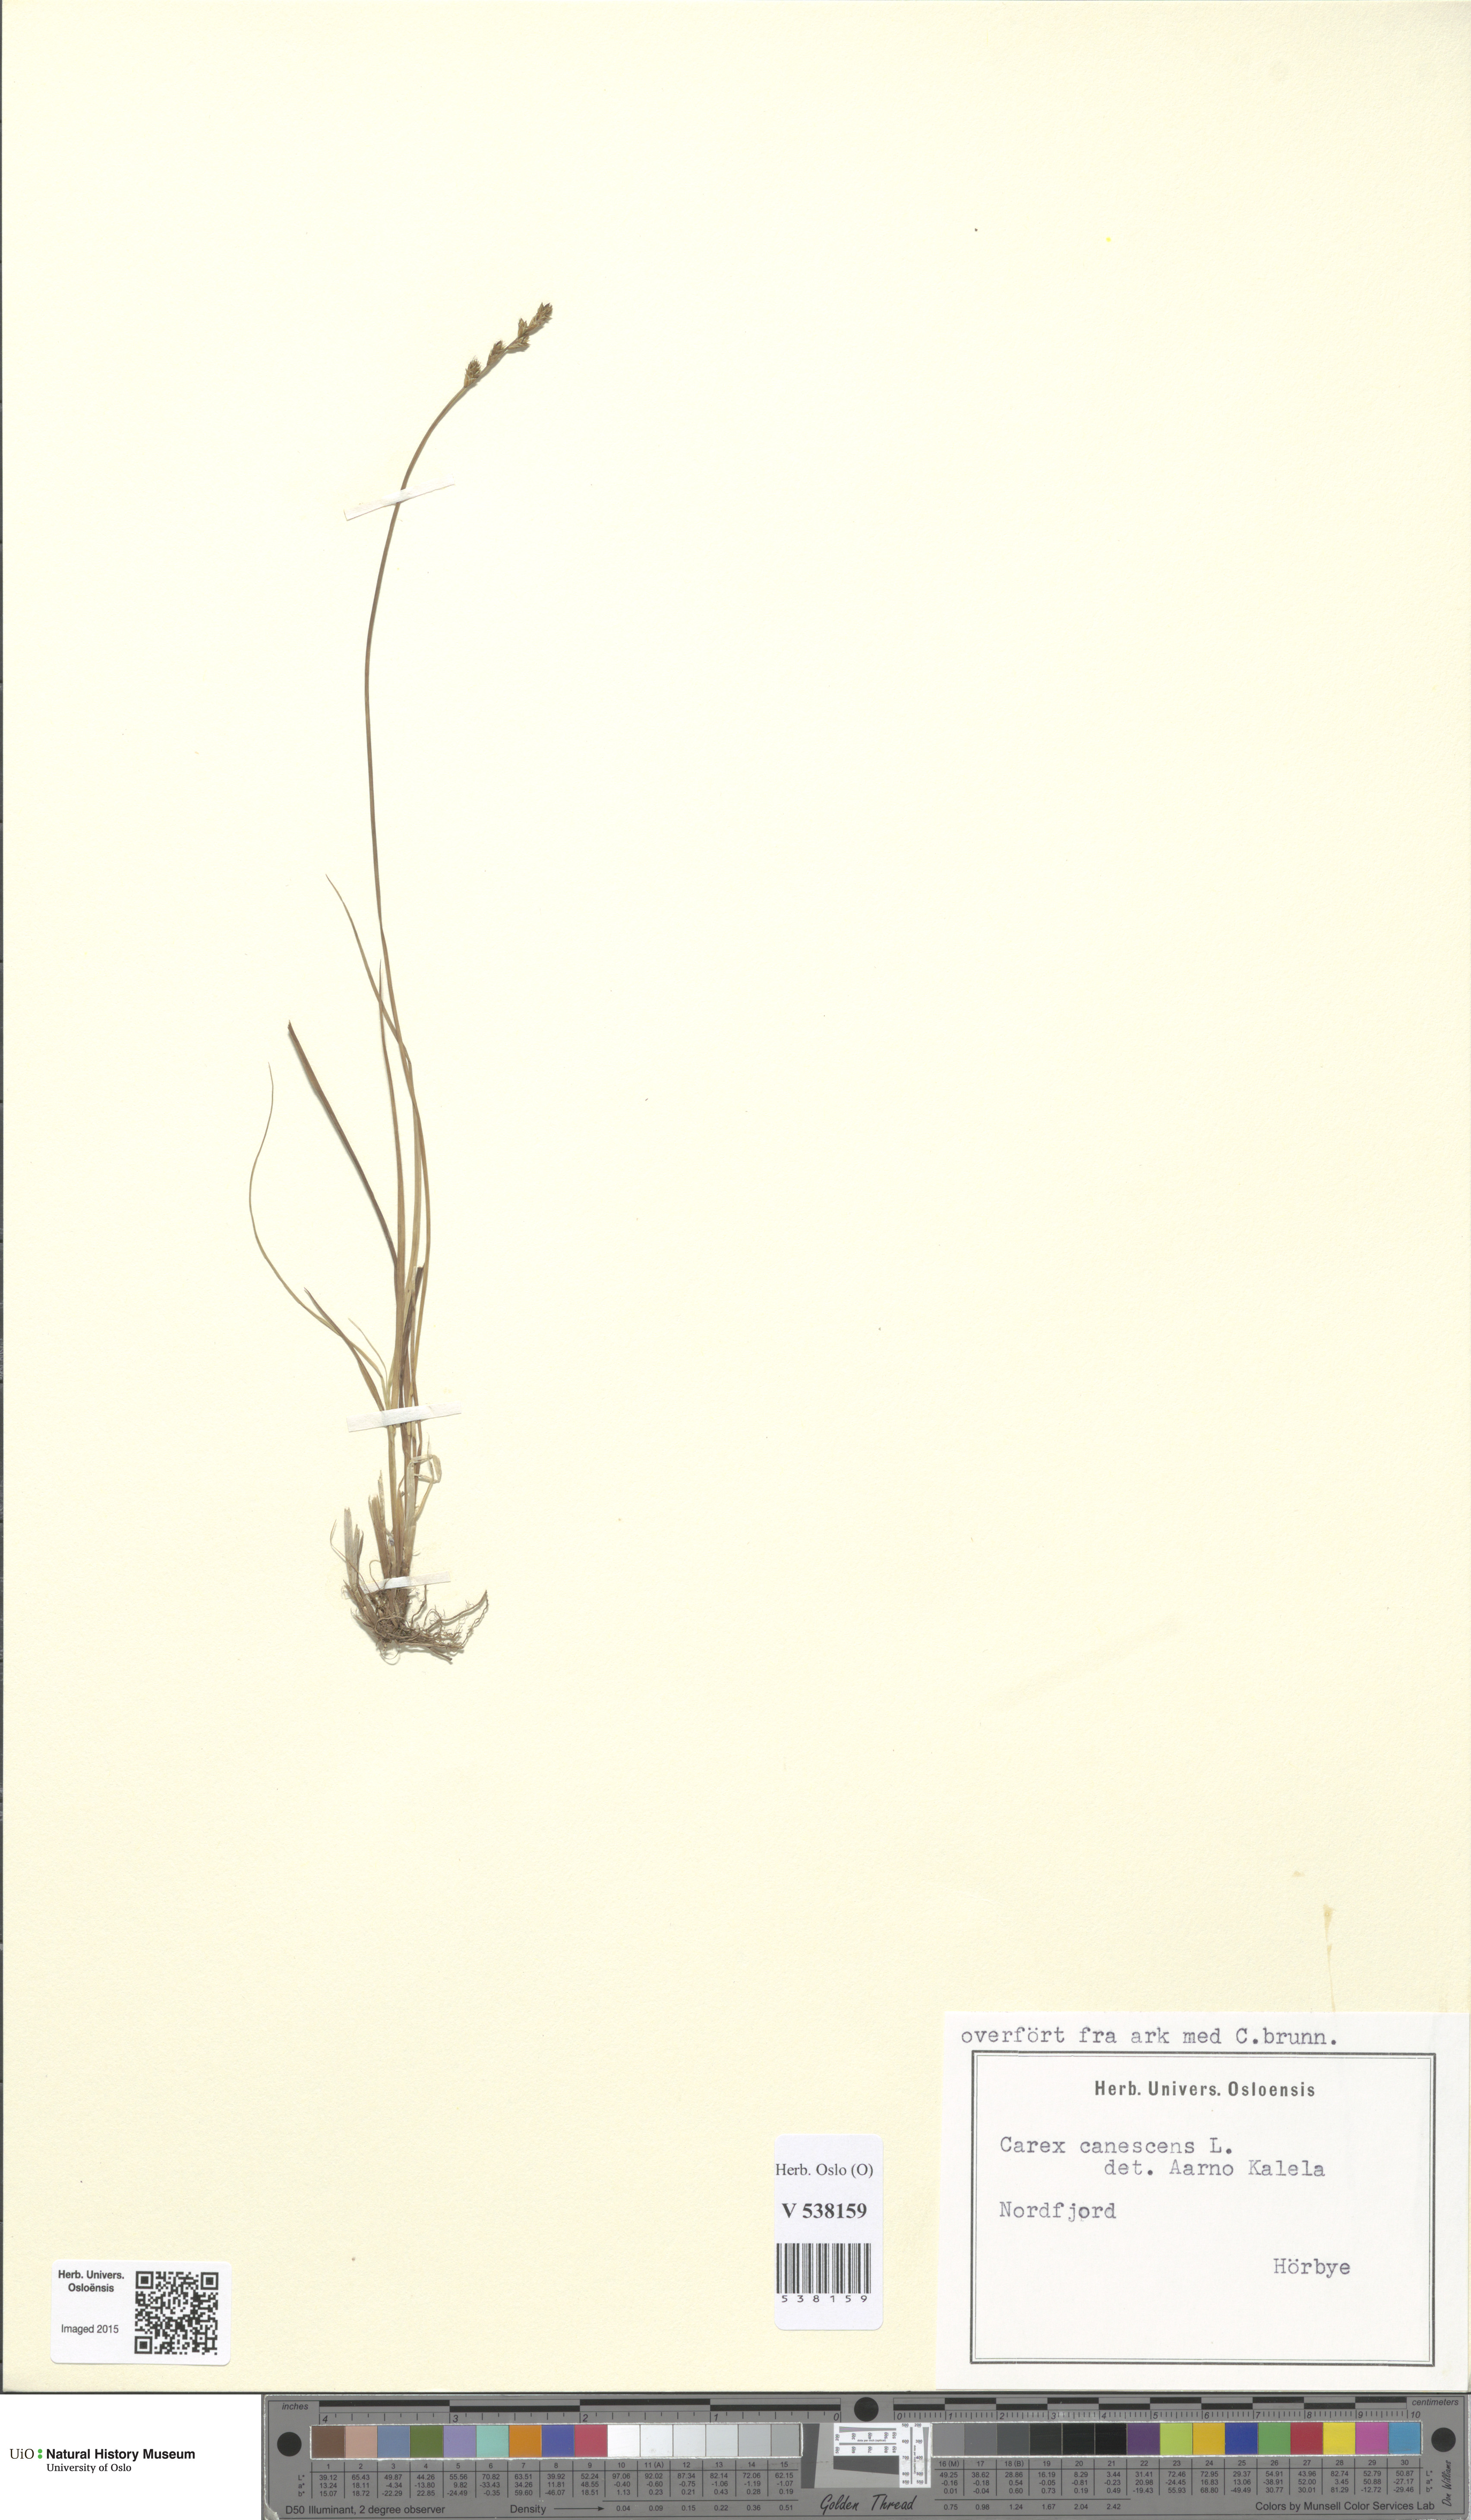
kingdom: Plantae
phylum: Tracheophyta
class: Liliopsida
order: Poales
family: Cyperaceae
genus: Carex
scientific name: Carex canescens
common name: White sedge
